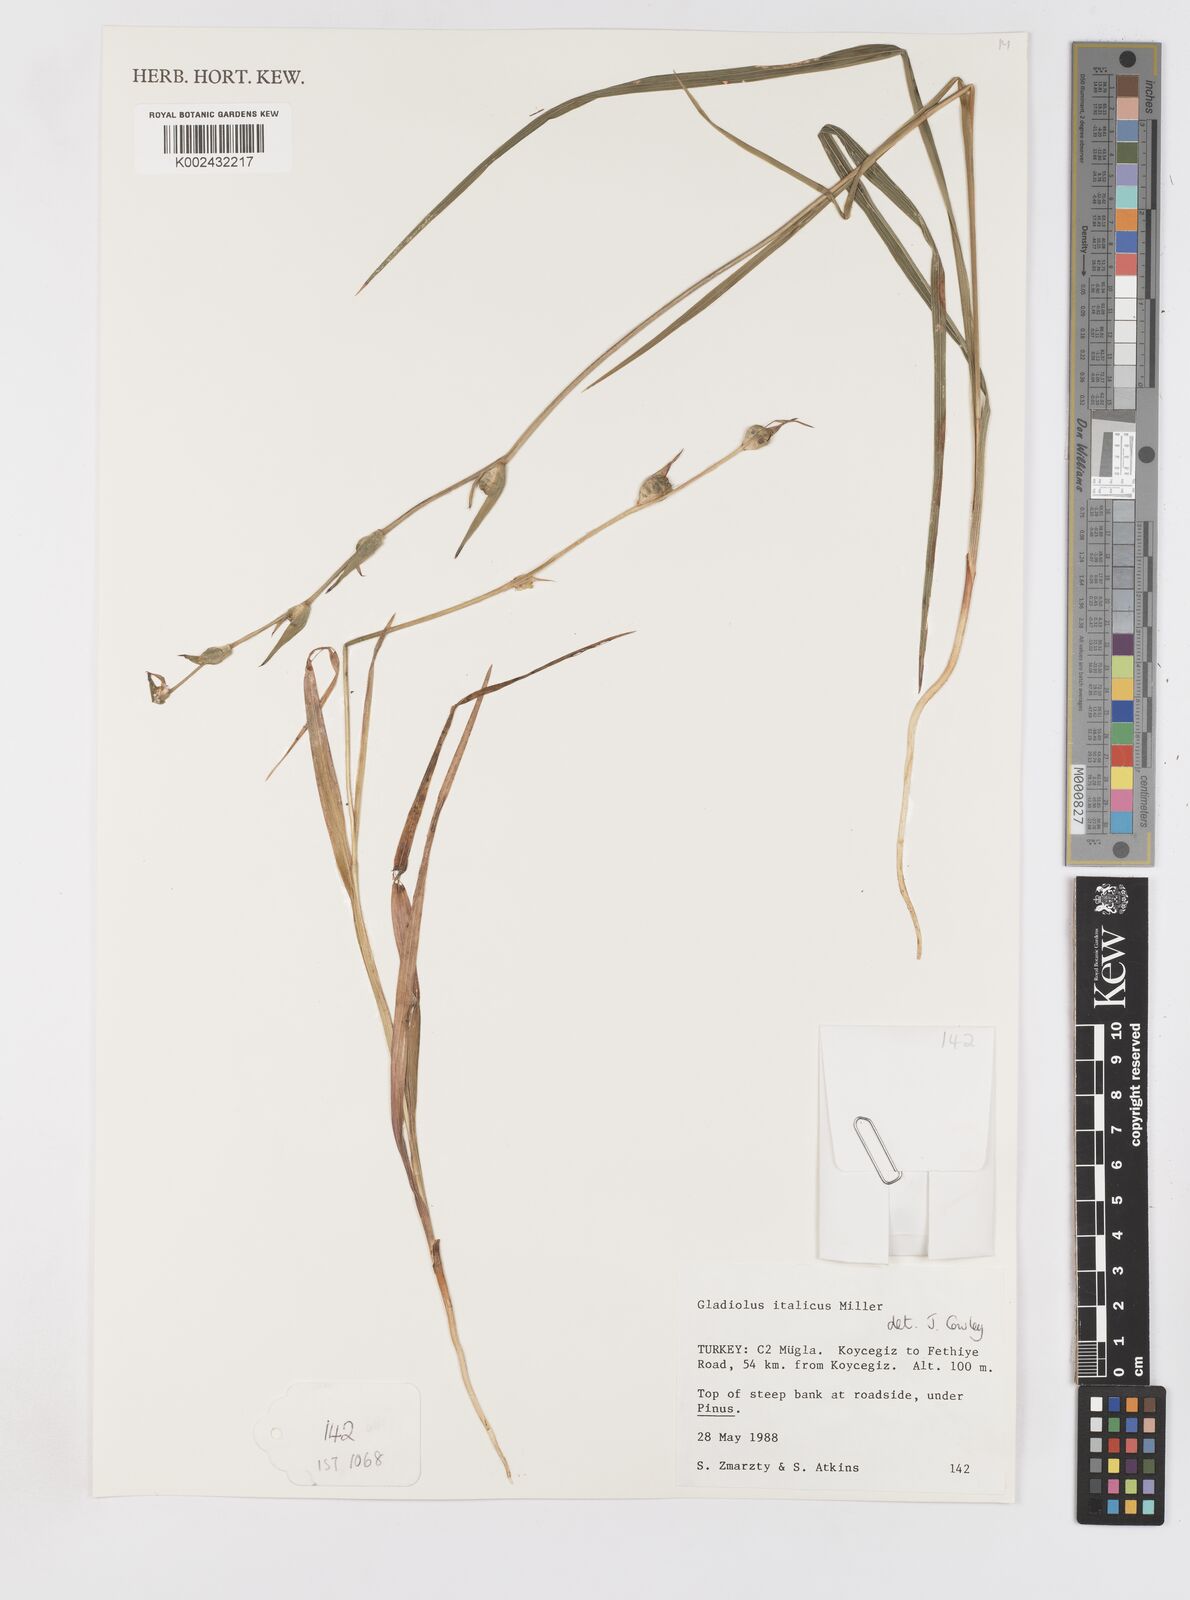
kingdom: Plantae
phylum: Tracheophyta
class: Liliopsida
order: Asparagales
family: Iridaceae
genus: Gladiolus
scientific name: Gladiolus italicus
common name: Field gladiolus
